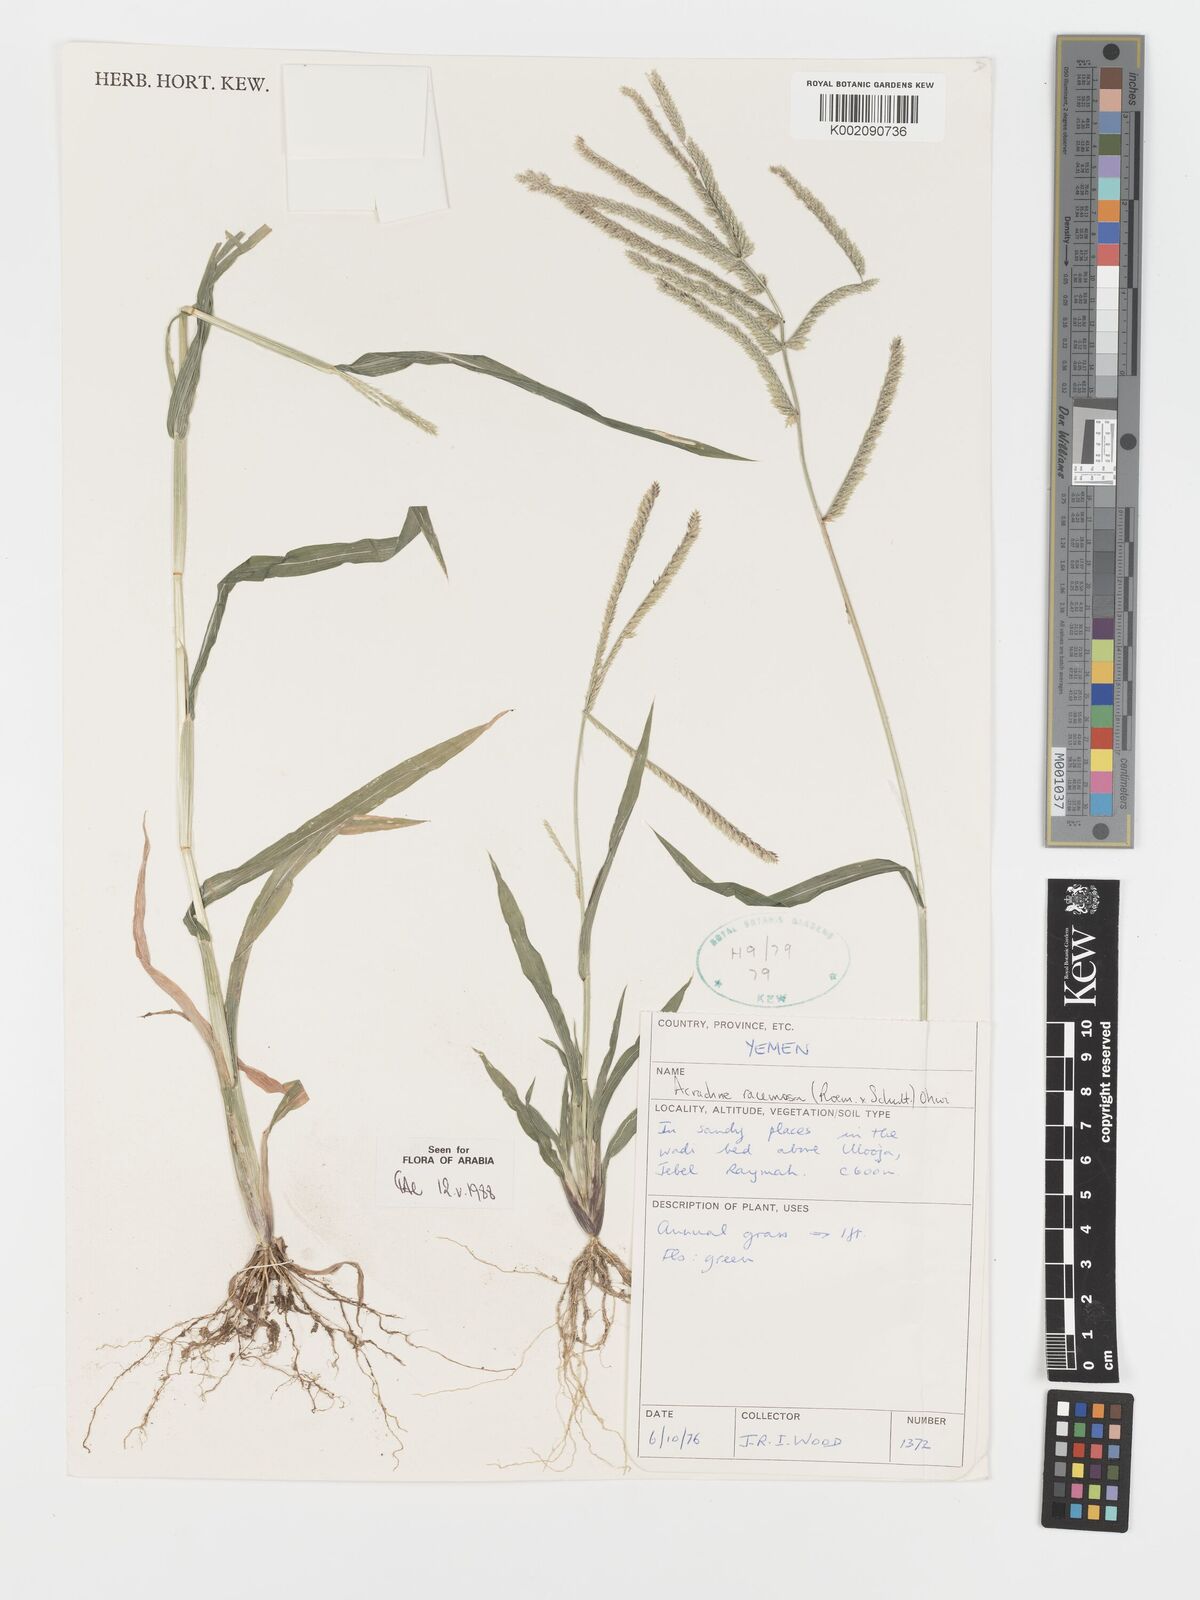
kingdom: Plantae
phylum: Tracheophyta
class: Liliopsida
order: Poales
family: Poaceae
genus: Acrachne
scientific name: Acrachne racemosa
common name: Goosegrass
